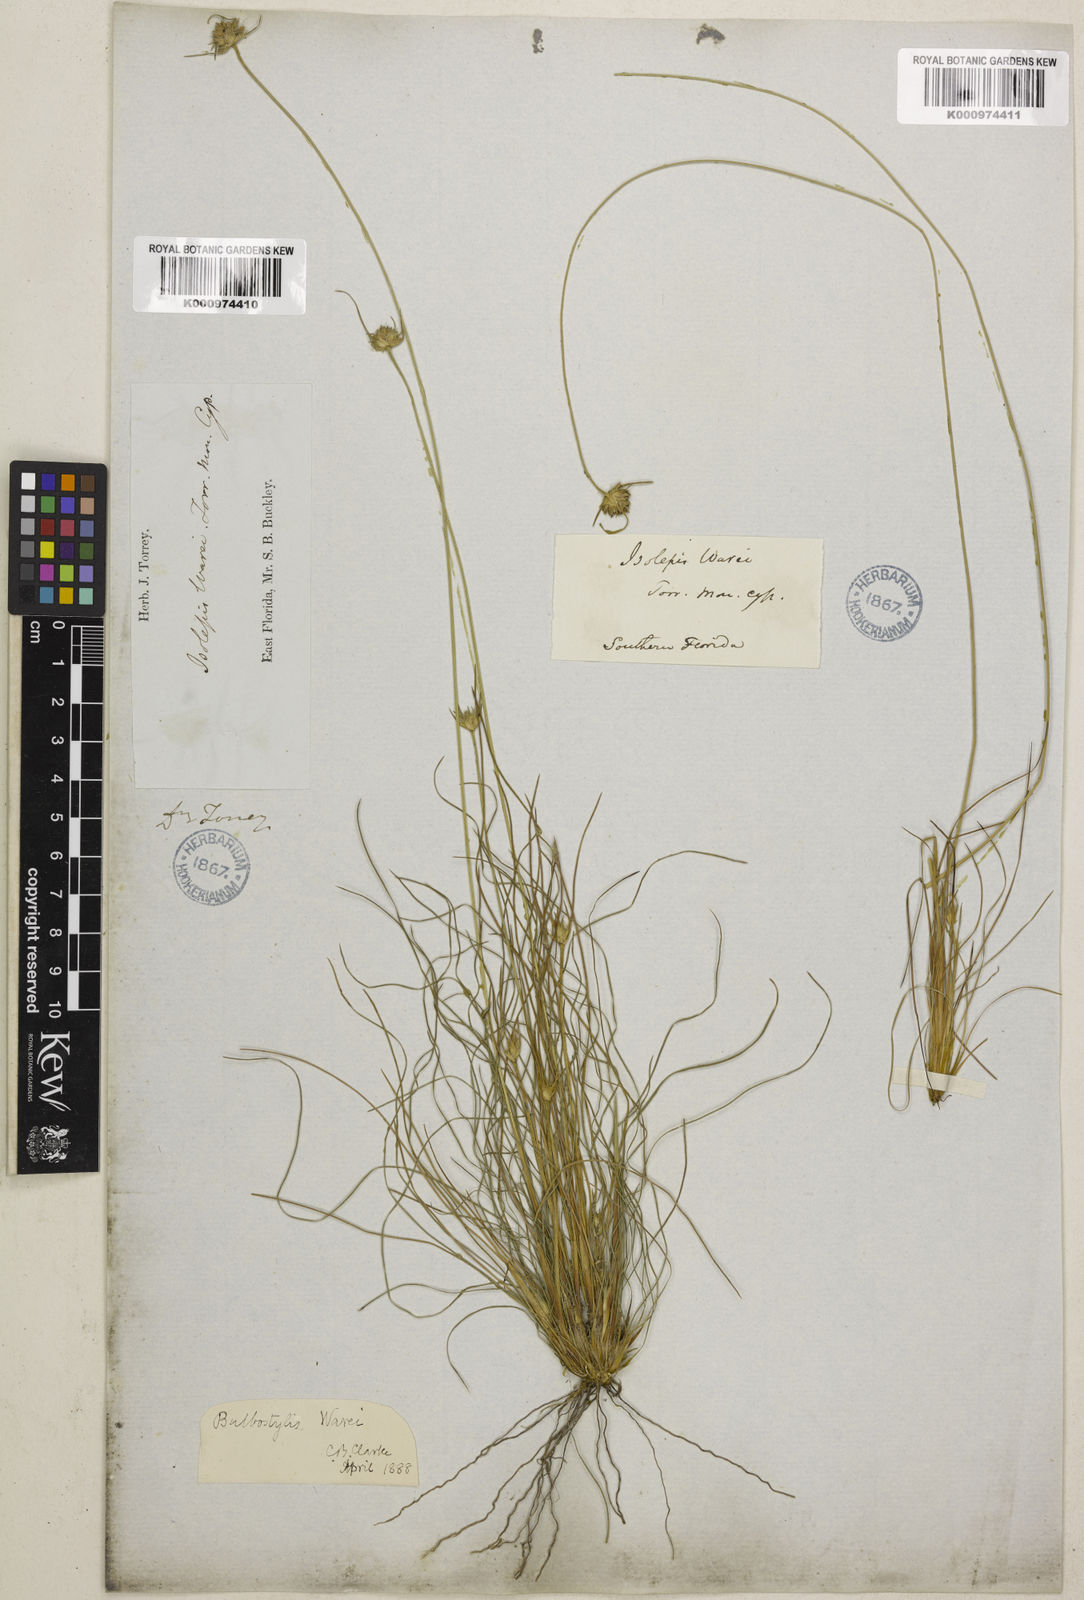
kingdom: Plantae
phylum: Tracheophyta
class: Liliopsida
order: Poales
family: Cyperaceae
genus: Bulbostylis
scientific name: Bulbostylis warei
